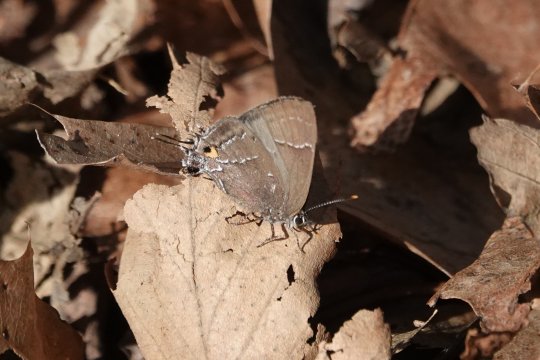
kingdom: Animalia
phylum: Arthropoda
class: Insecta
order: Lepidoptera
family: Lycaenidae
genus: Parrhasius
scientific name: Parrhasius m-album
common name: White-m Hairstreak
